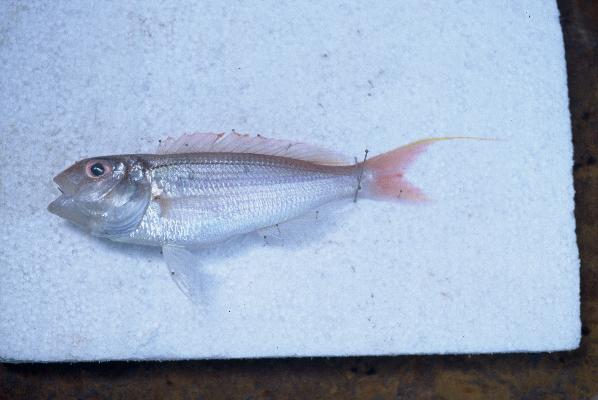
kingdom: Animalia
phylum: Chordata
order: Perciformes
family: Nemipteridae
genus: Nemipterus
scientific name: Nemipterus randalli
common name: Randall's threadfin bream
